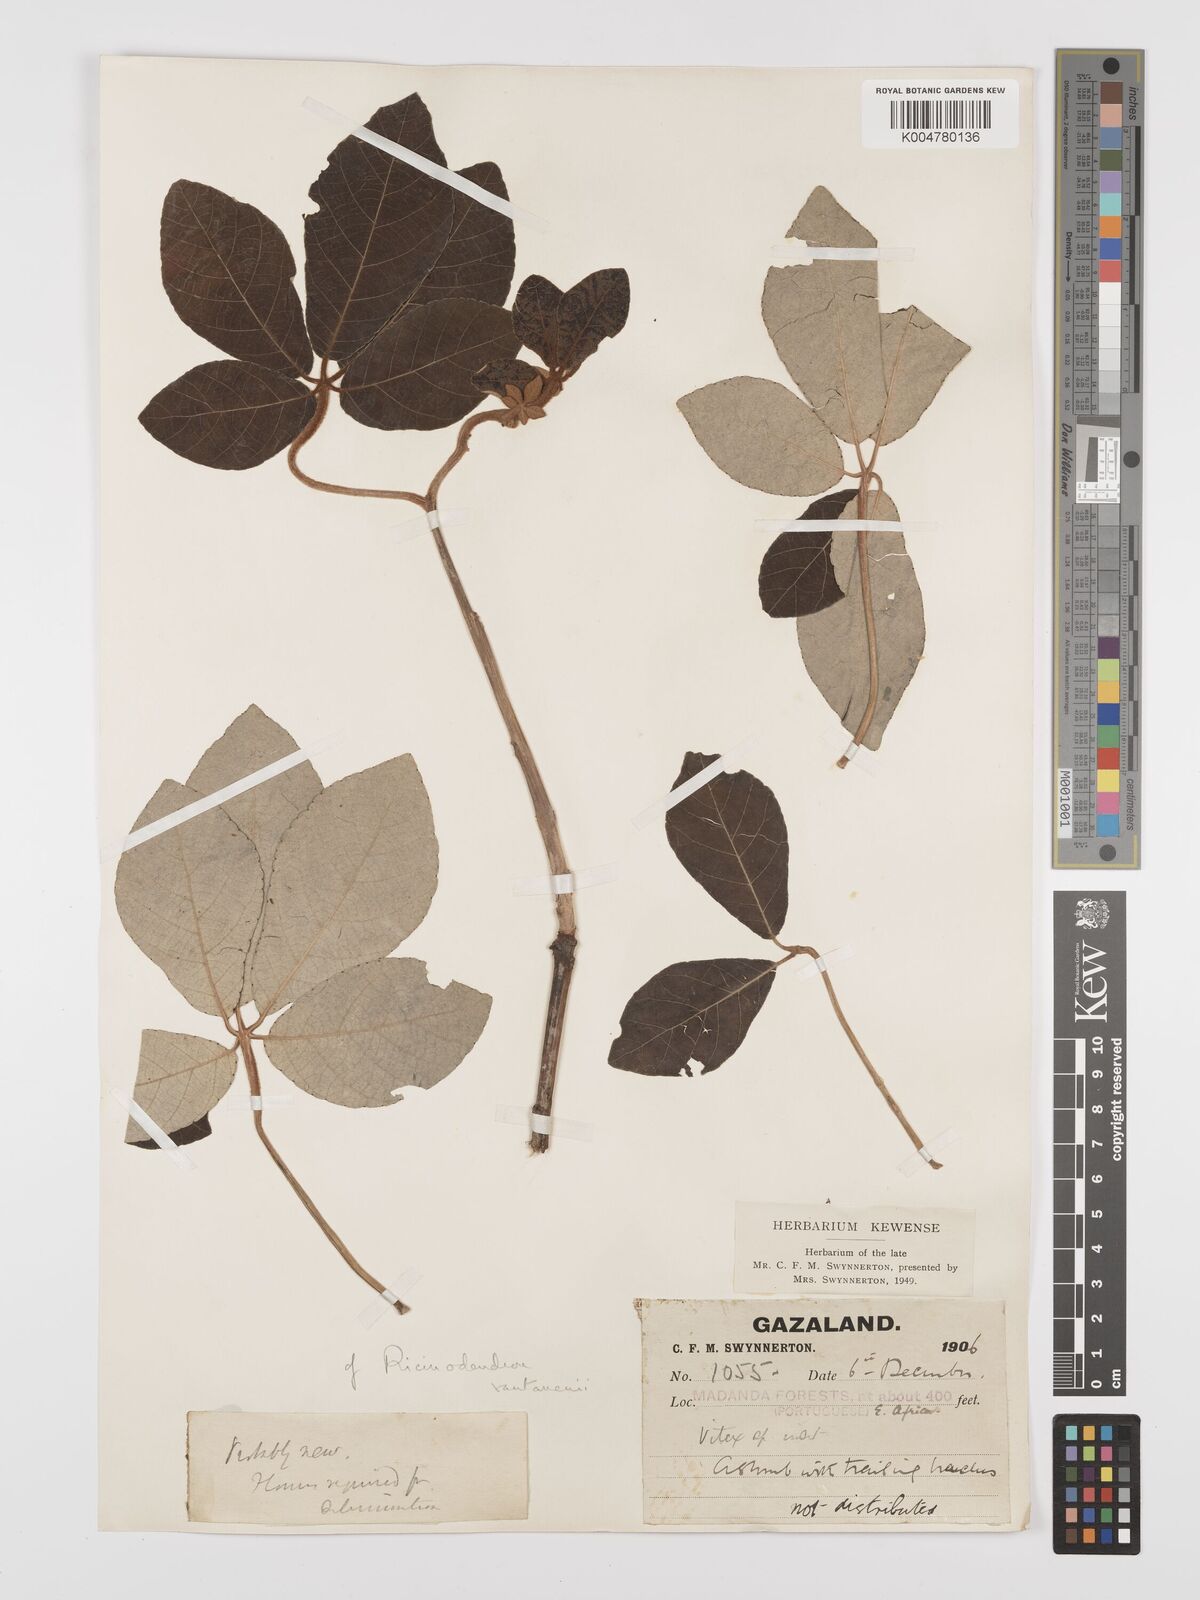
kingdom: Plantae
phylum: Tracheophyta
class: Magnoliopsida
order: Malpighiales
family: Euphorbiaceae
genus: Schinziophyton
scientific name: Schinziophyton rautanenii
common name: Manketti
